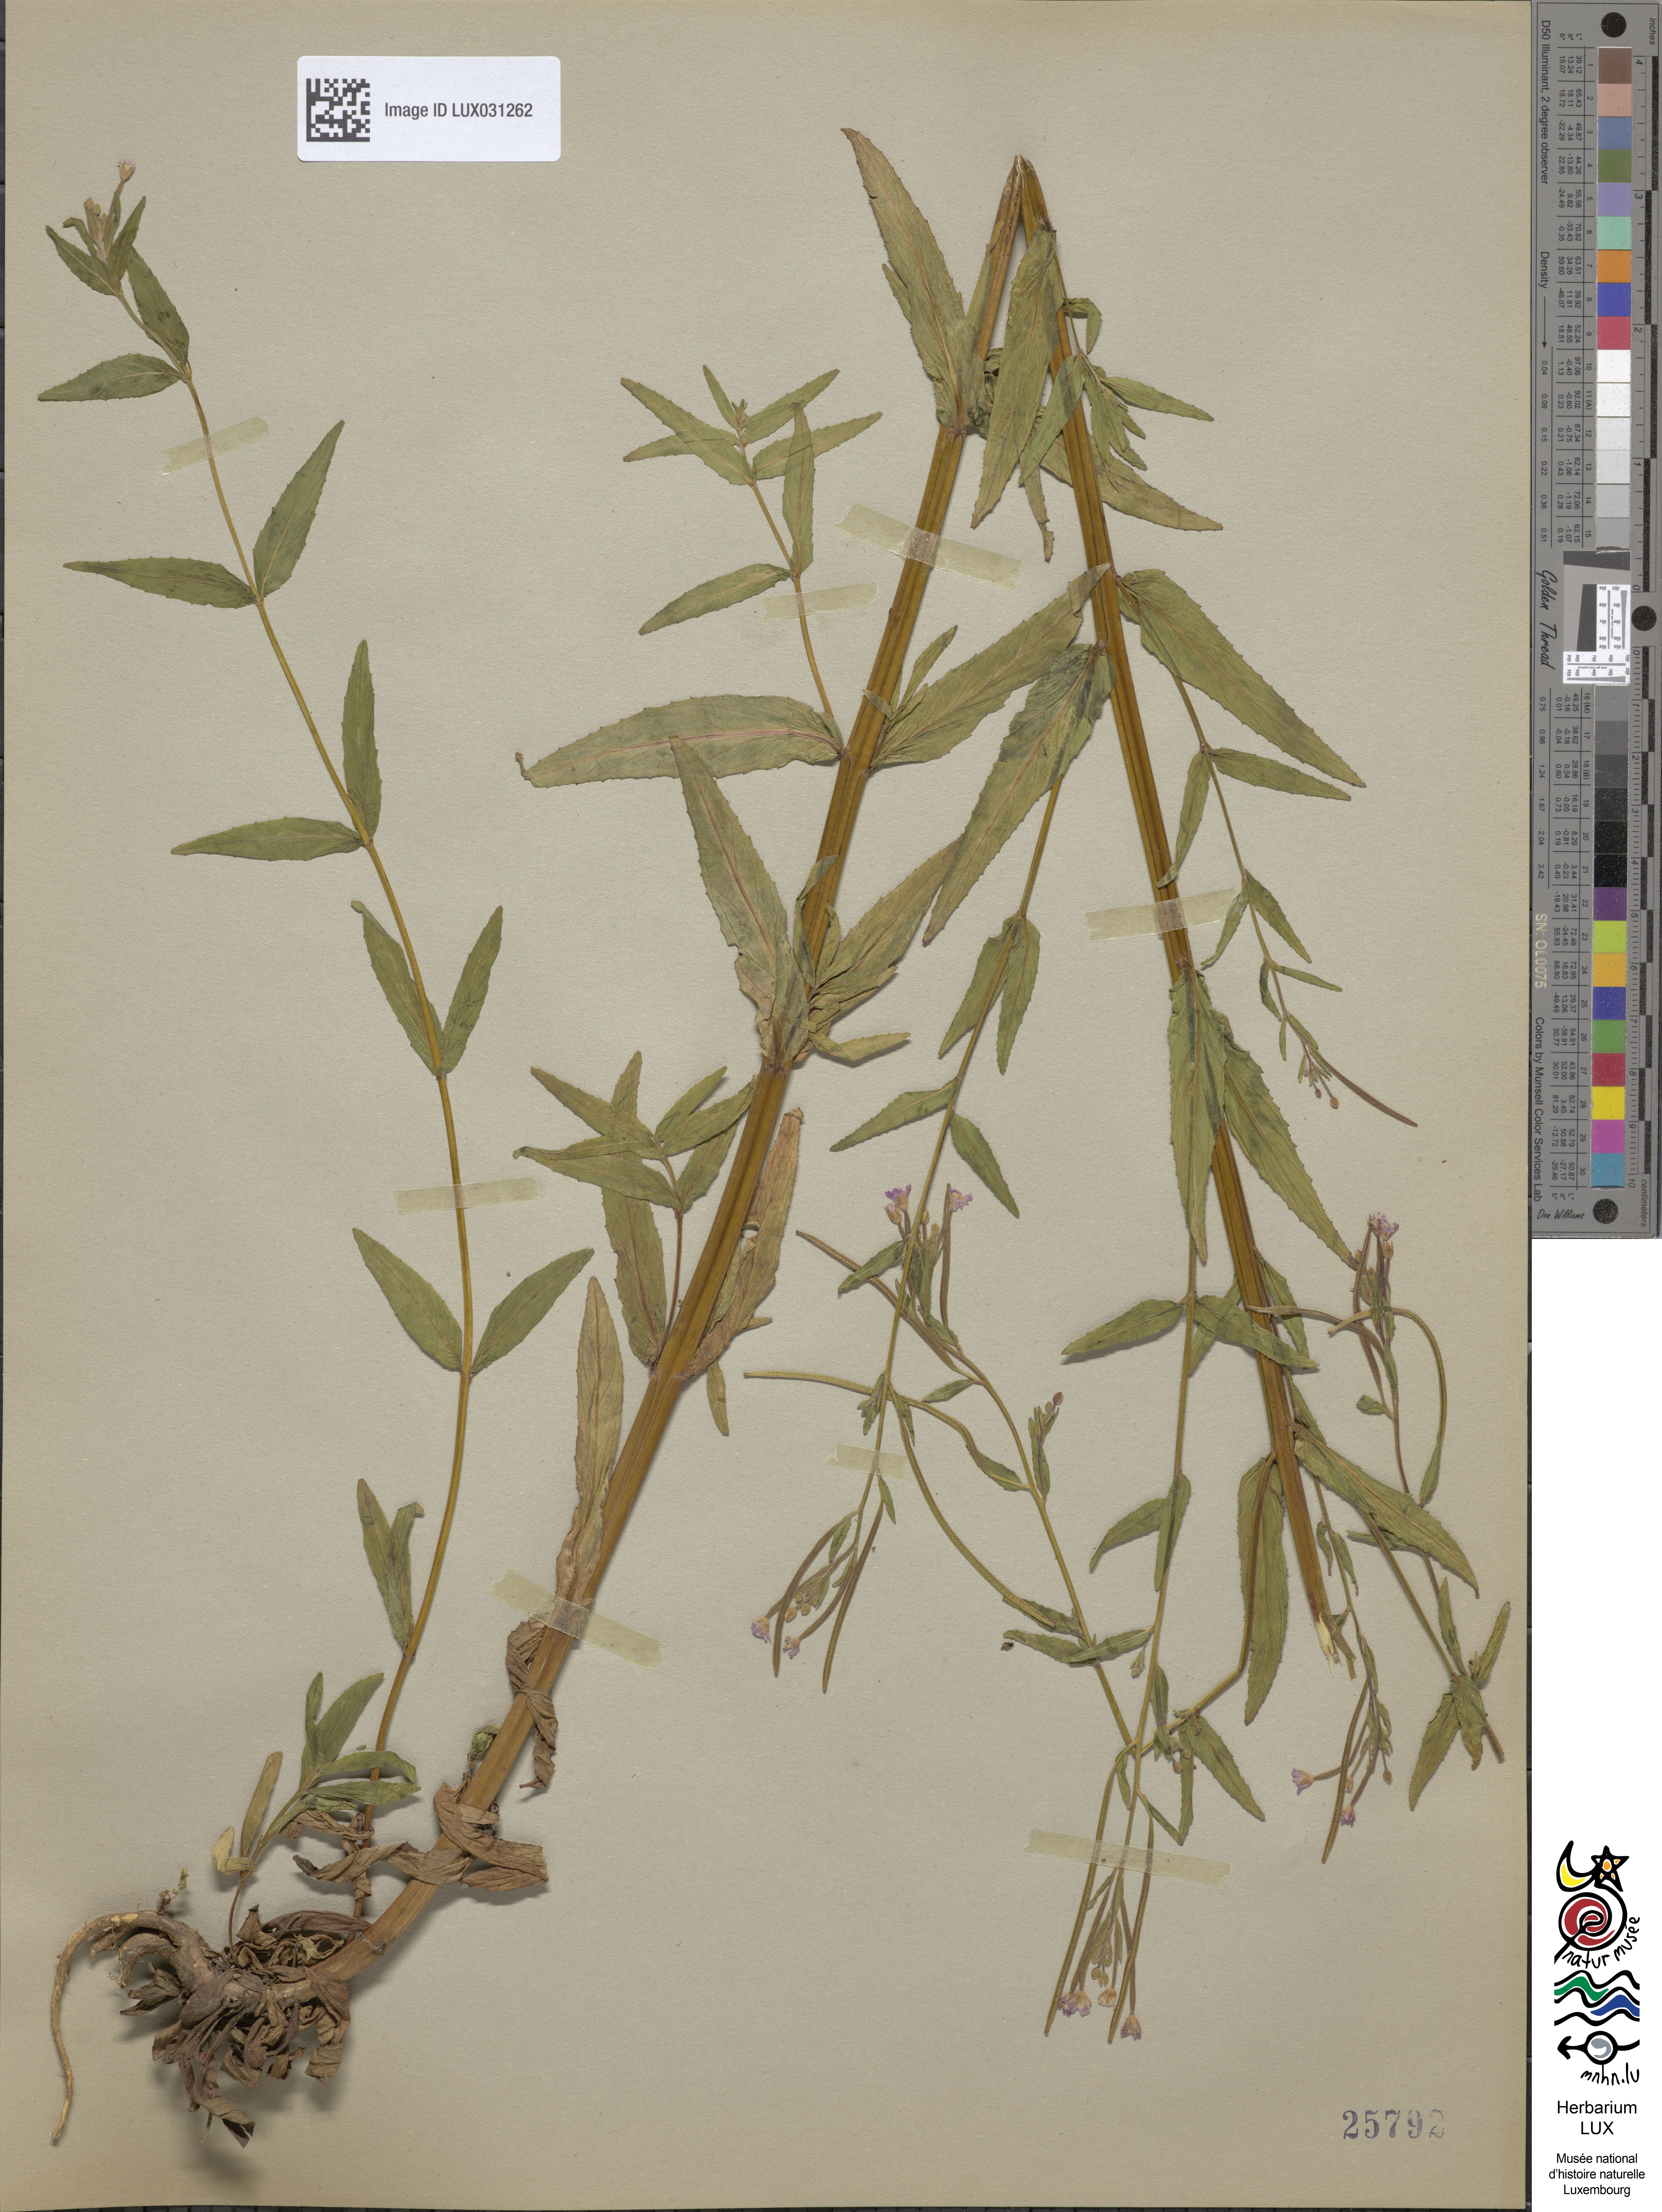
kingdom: Plantae
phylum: Tracheophyta
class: Magnoliopsida
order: Myrtales
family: Onagraceae
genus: Epilobium
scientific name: Epilobium ciliatum
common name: American willowherb
